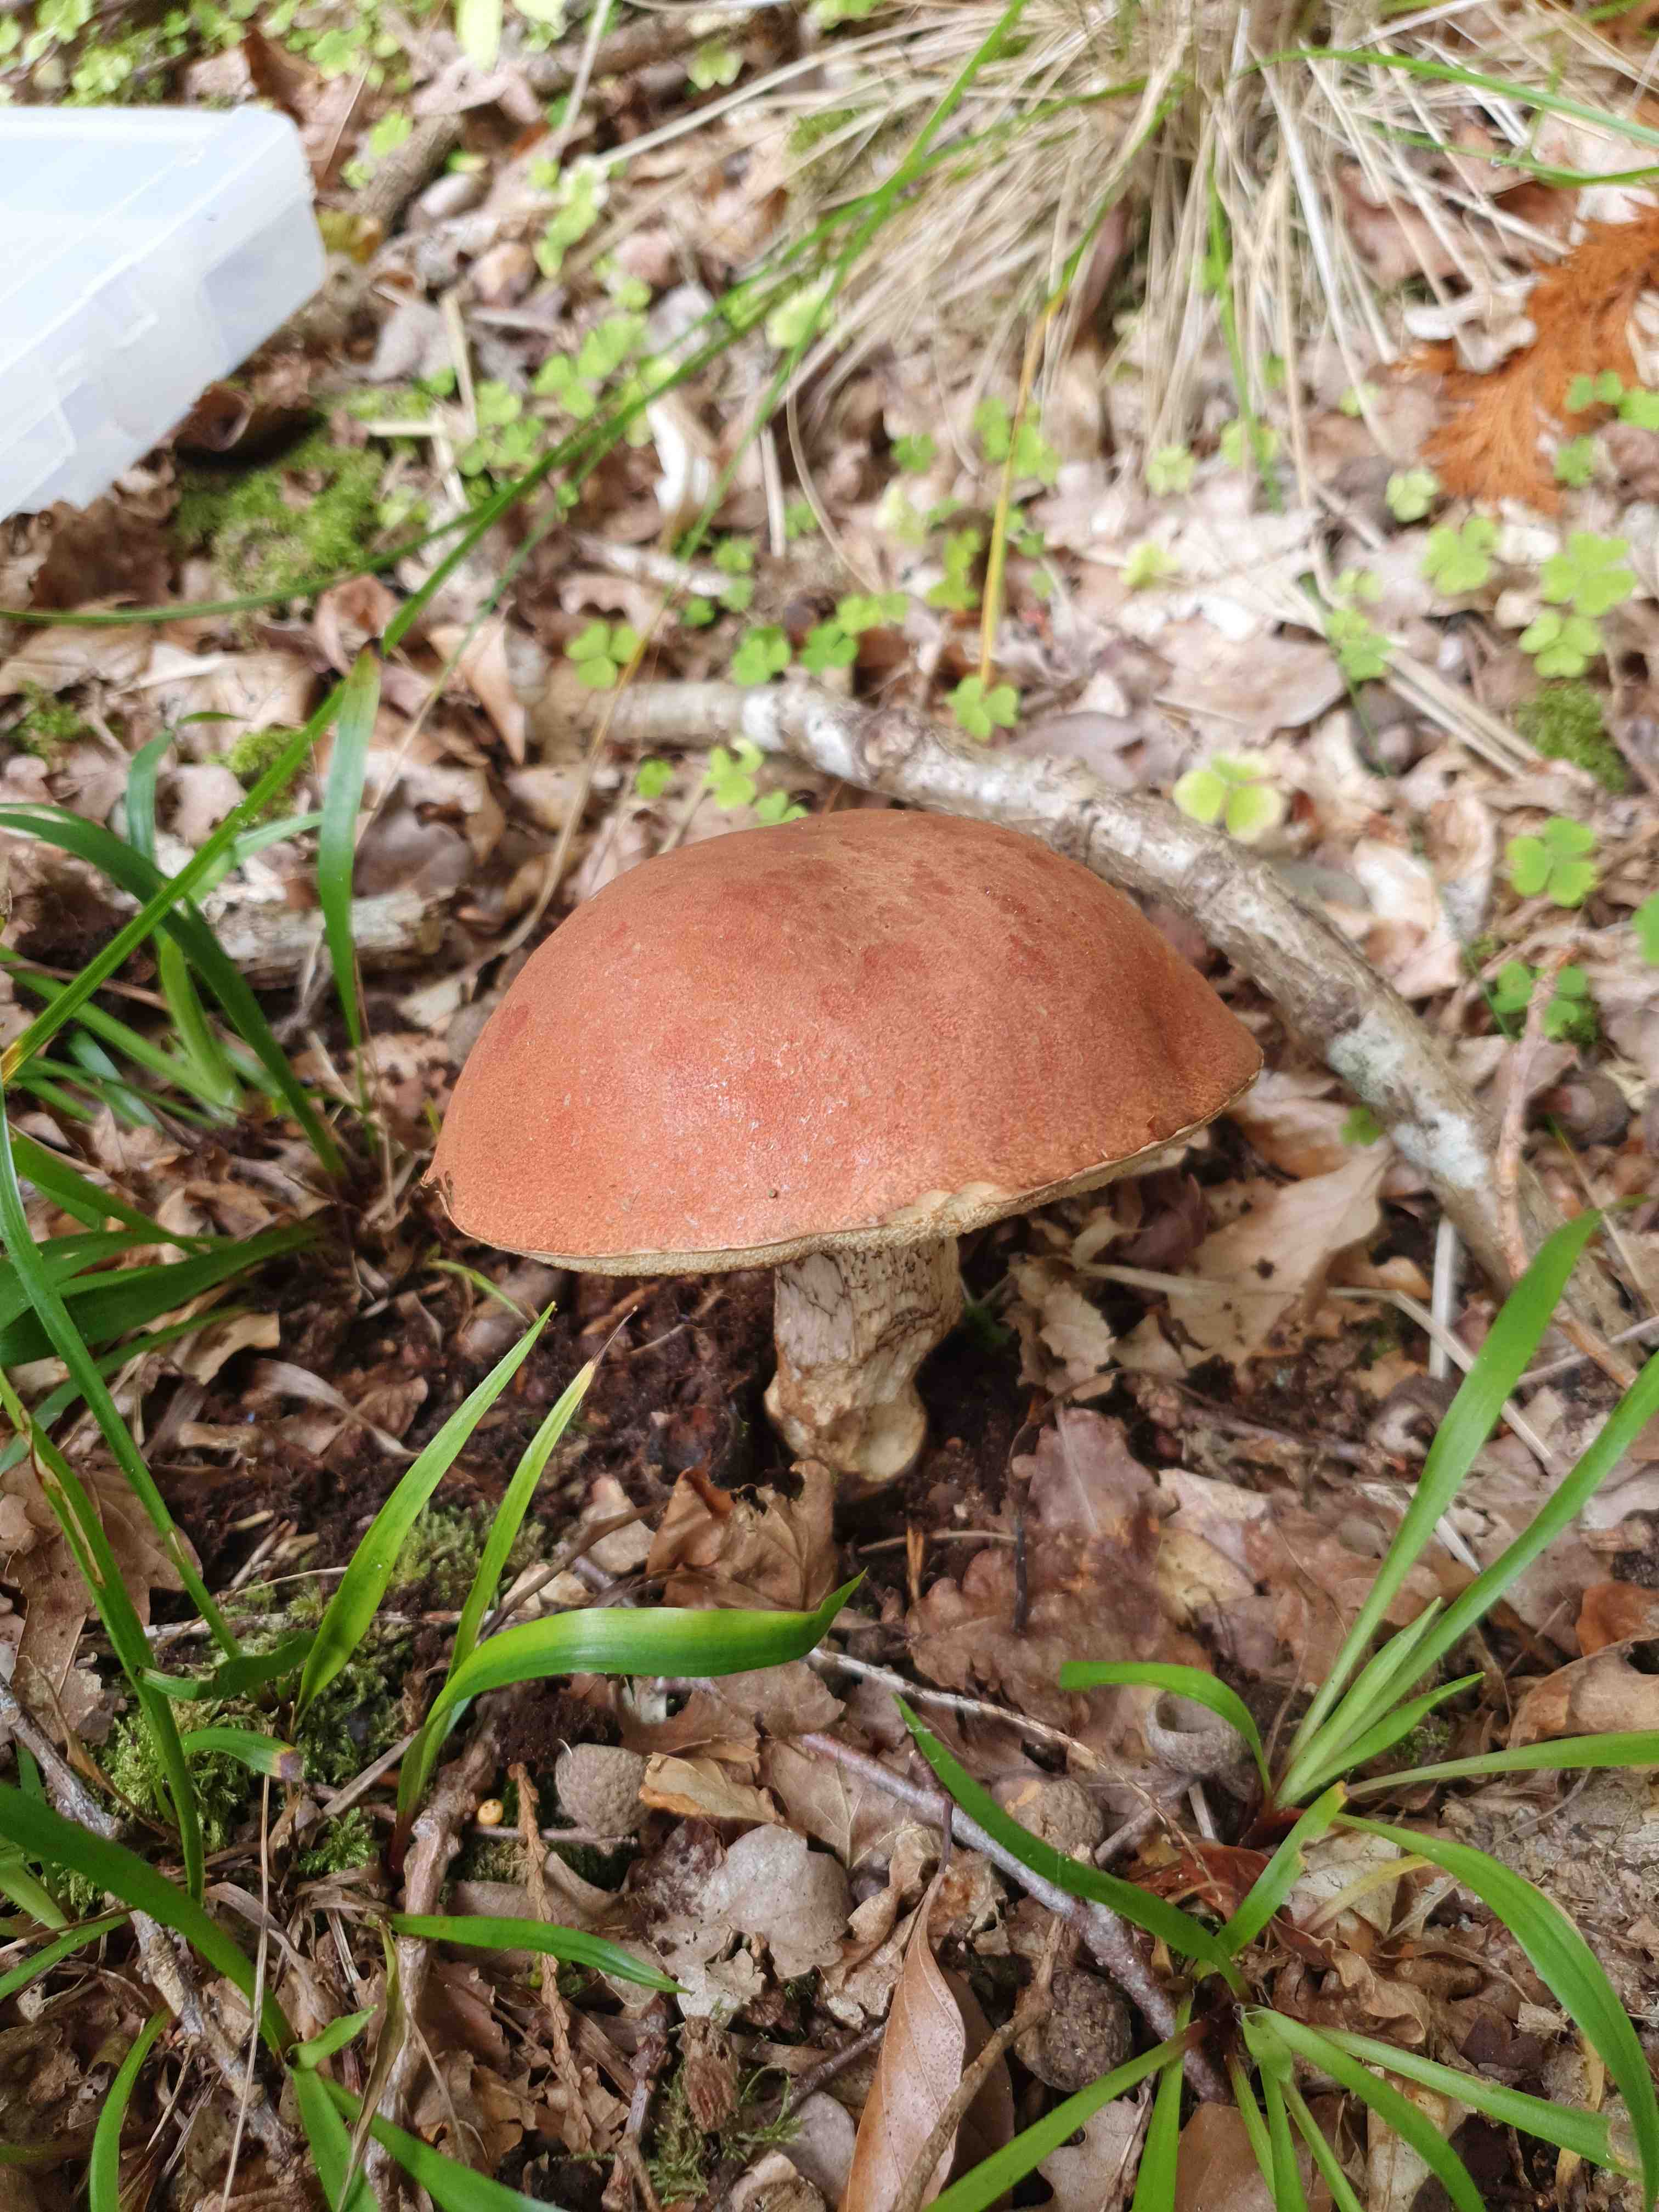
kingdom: Fungi
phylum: Basidiomycota
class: Agaricomycetes
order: Boletales
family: Boletaceae
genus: Leccinum
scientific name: Leccinum aurantiacum
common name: rustrød skælrørhat
